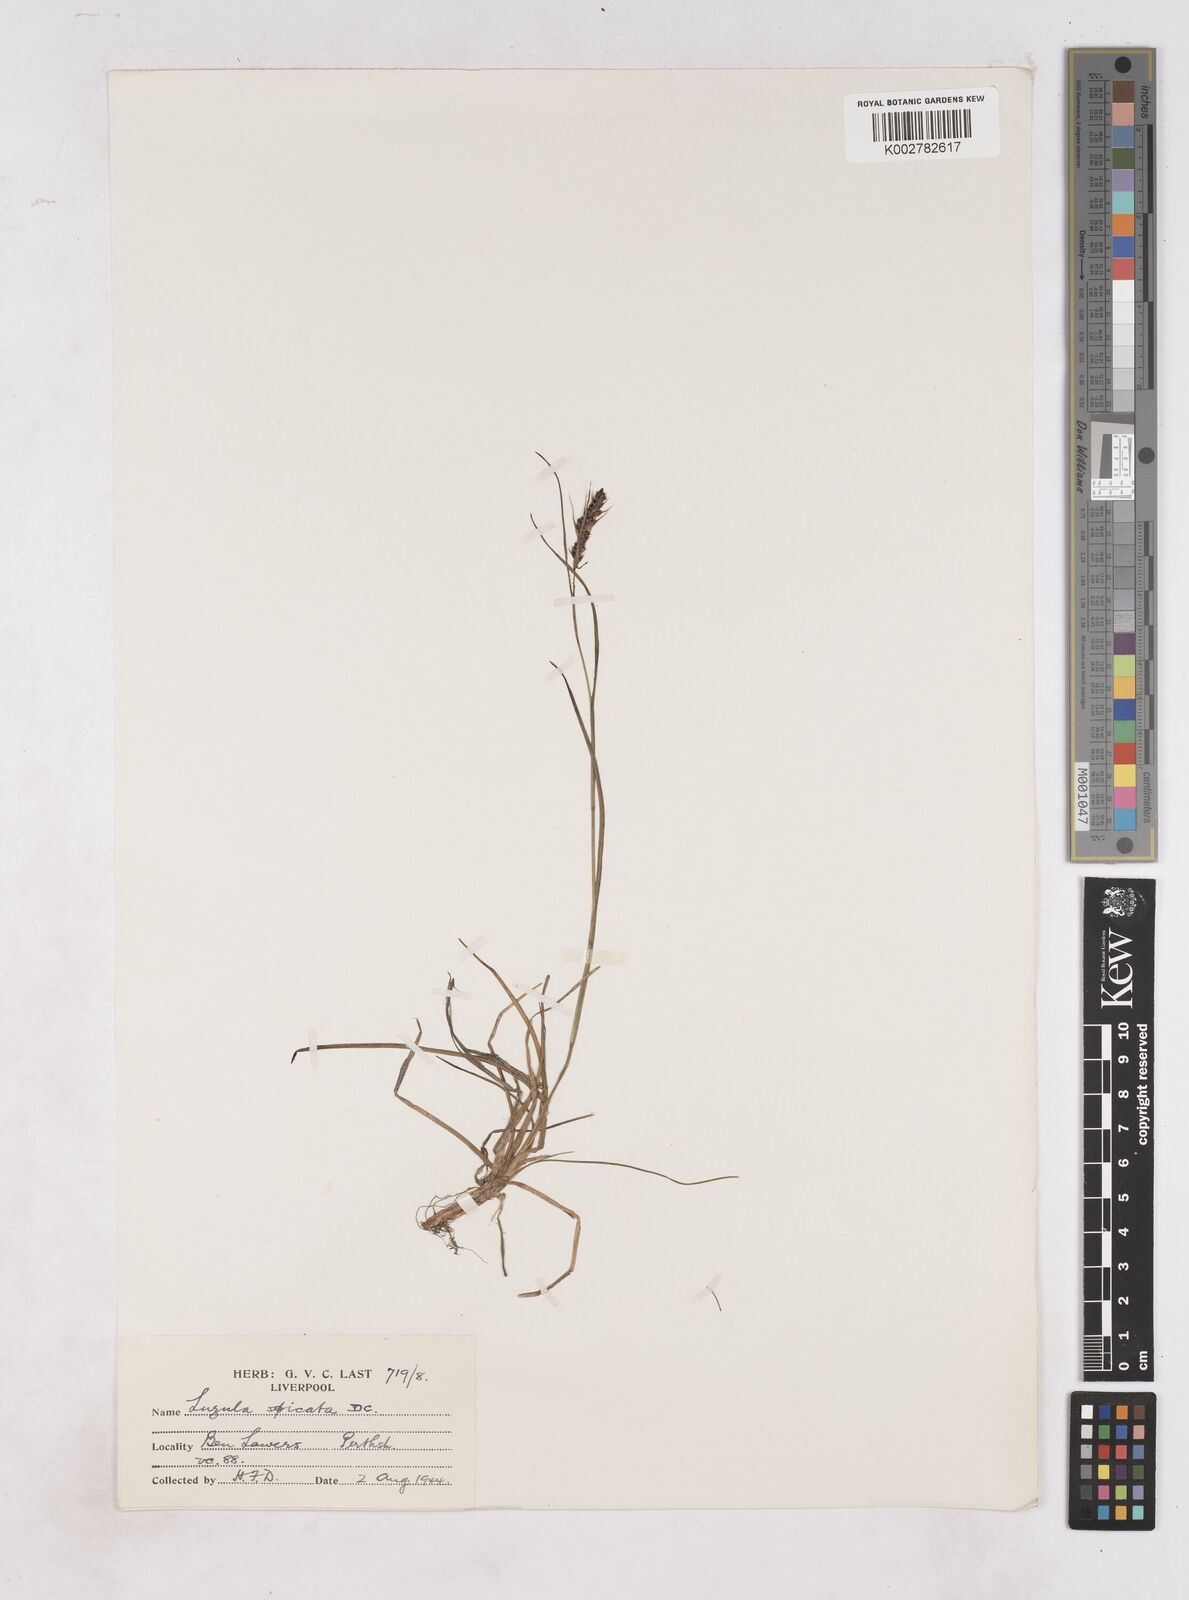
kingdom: Plantae
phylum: Tracheophyta
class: Liliopsida
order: Poales
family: Juncaceae
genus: Luzula
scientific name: Luzula spicata
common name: Spiked wood-rush
